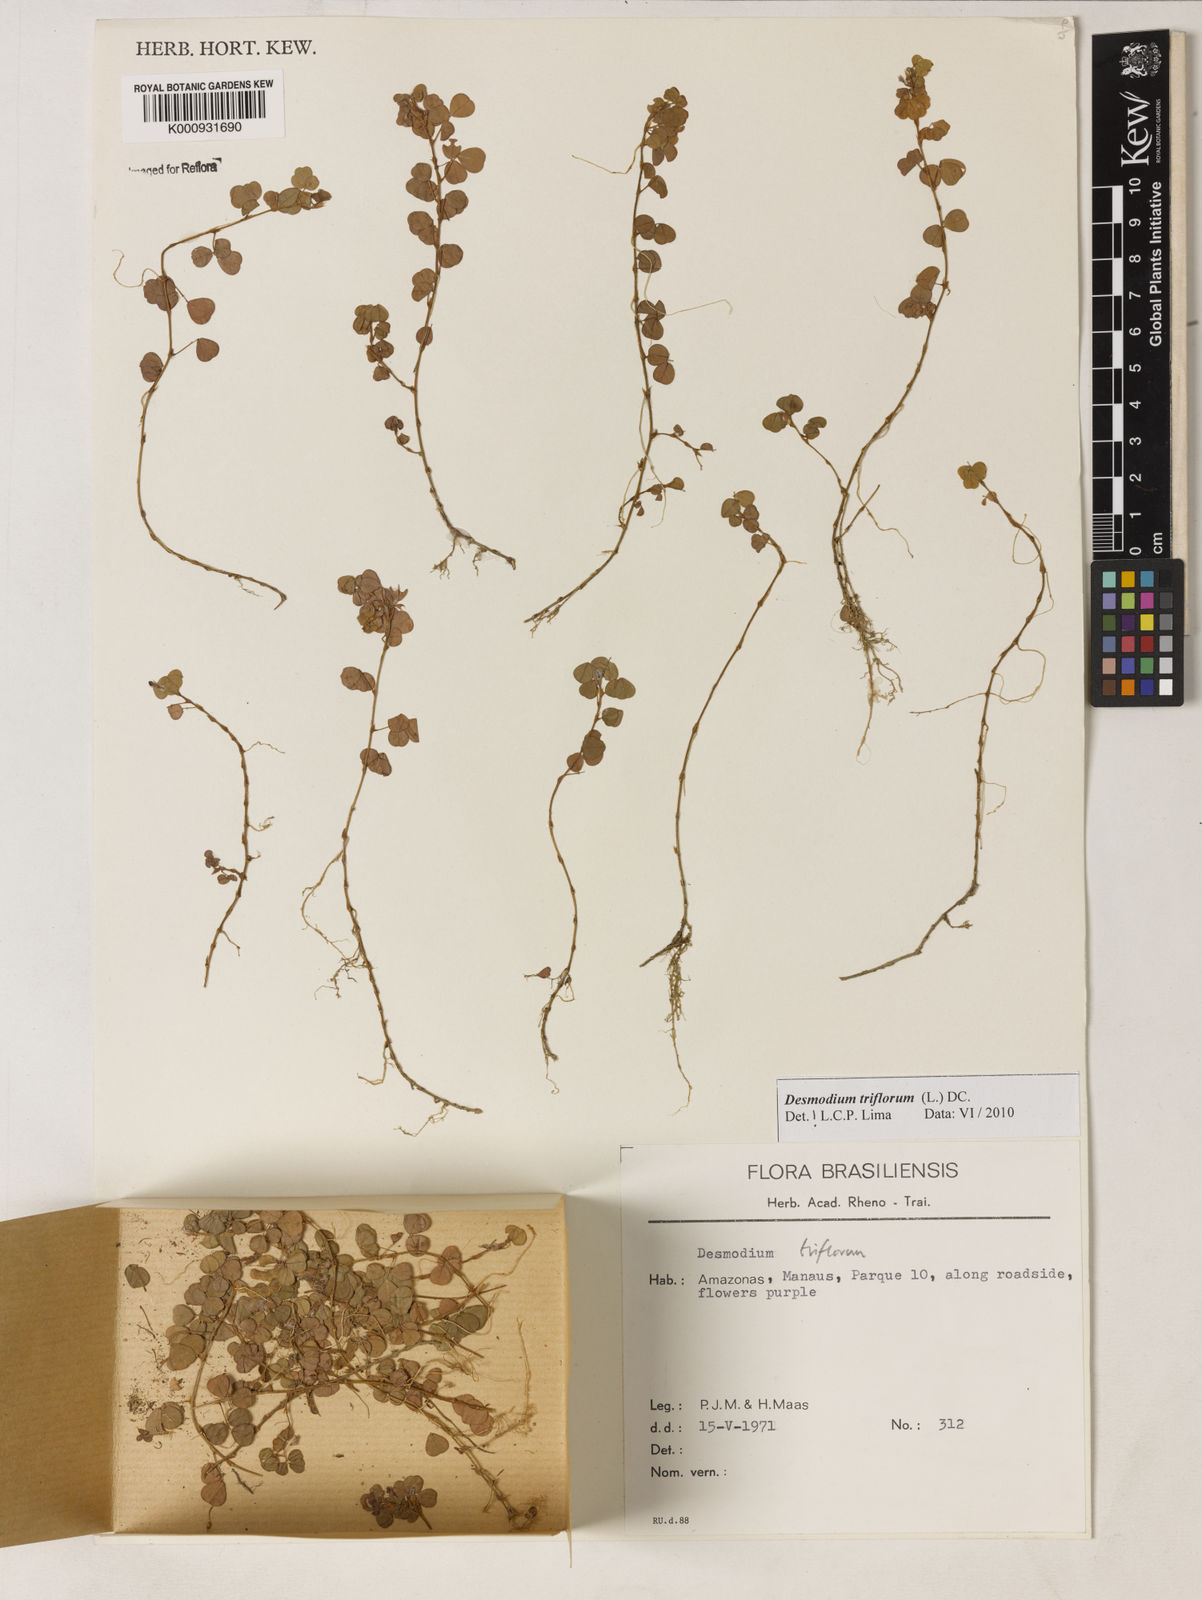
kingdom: Plantae
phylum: Tracheophyta
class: Magnoliopsida
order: Fabales
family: Fabaceae
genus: Grona
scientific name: Grona triflora
